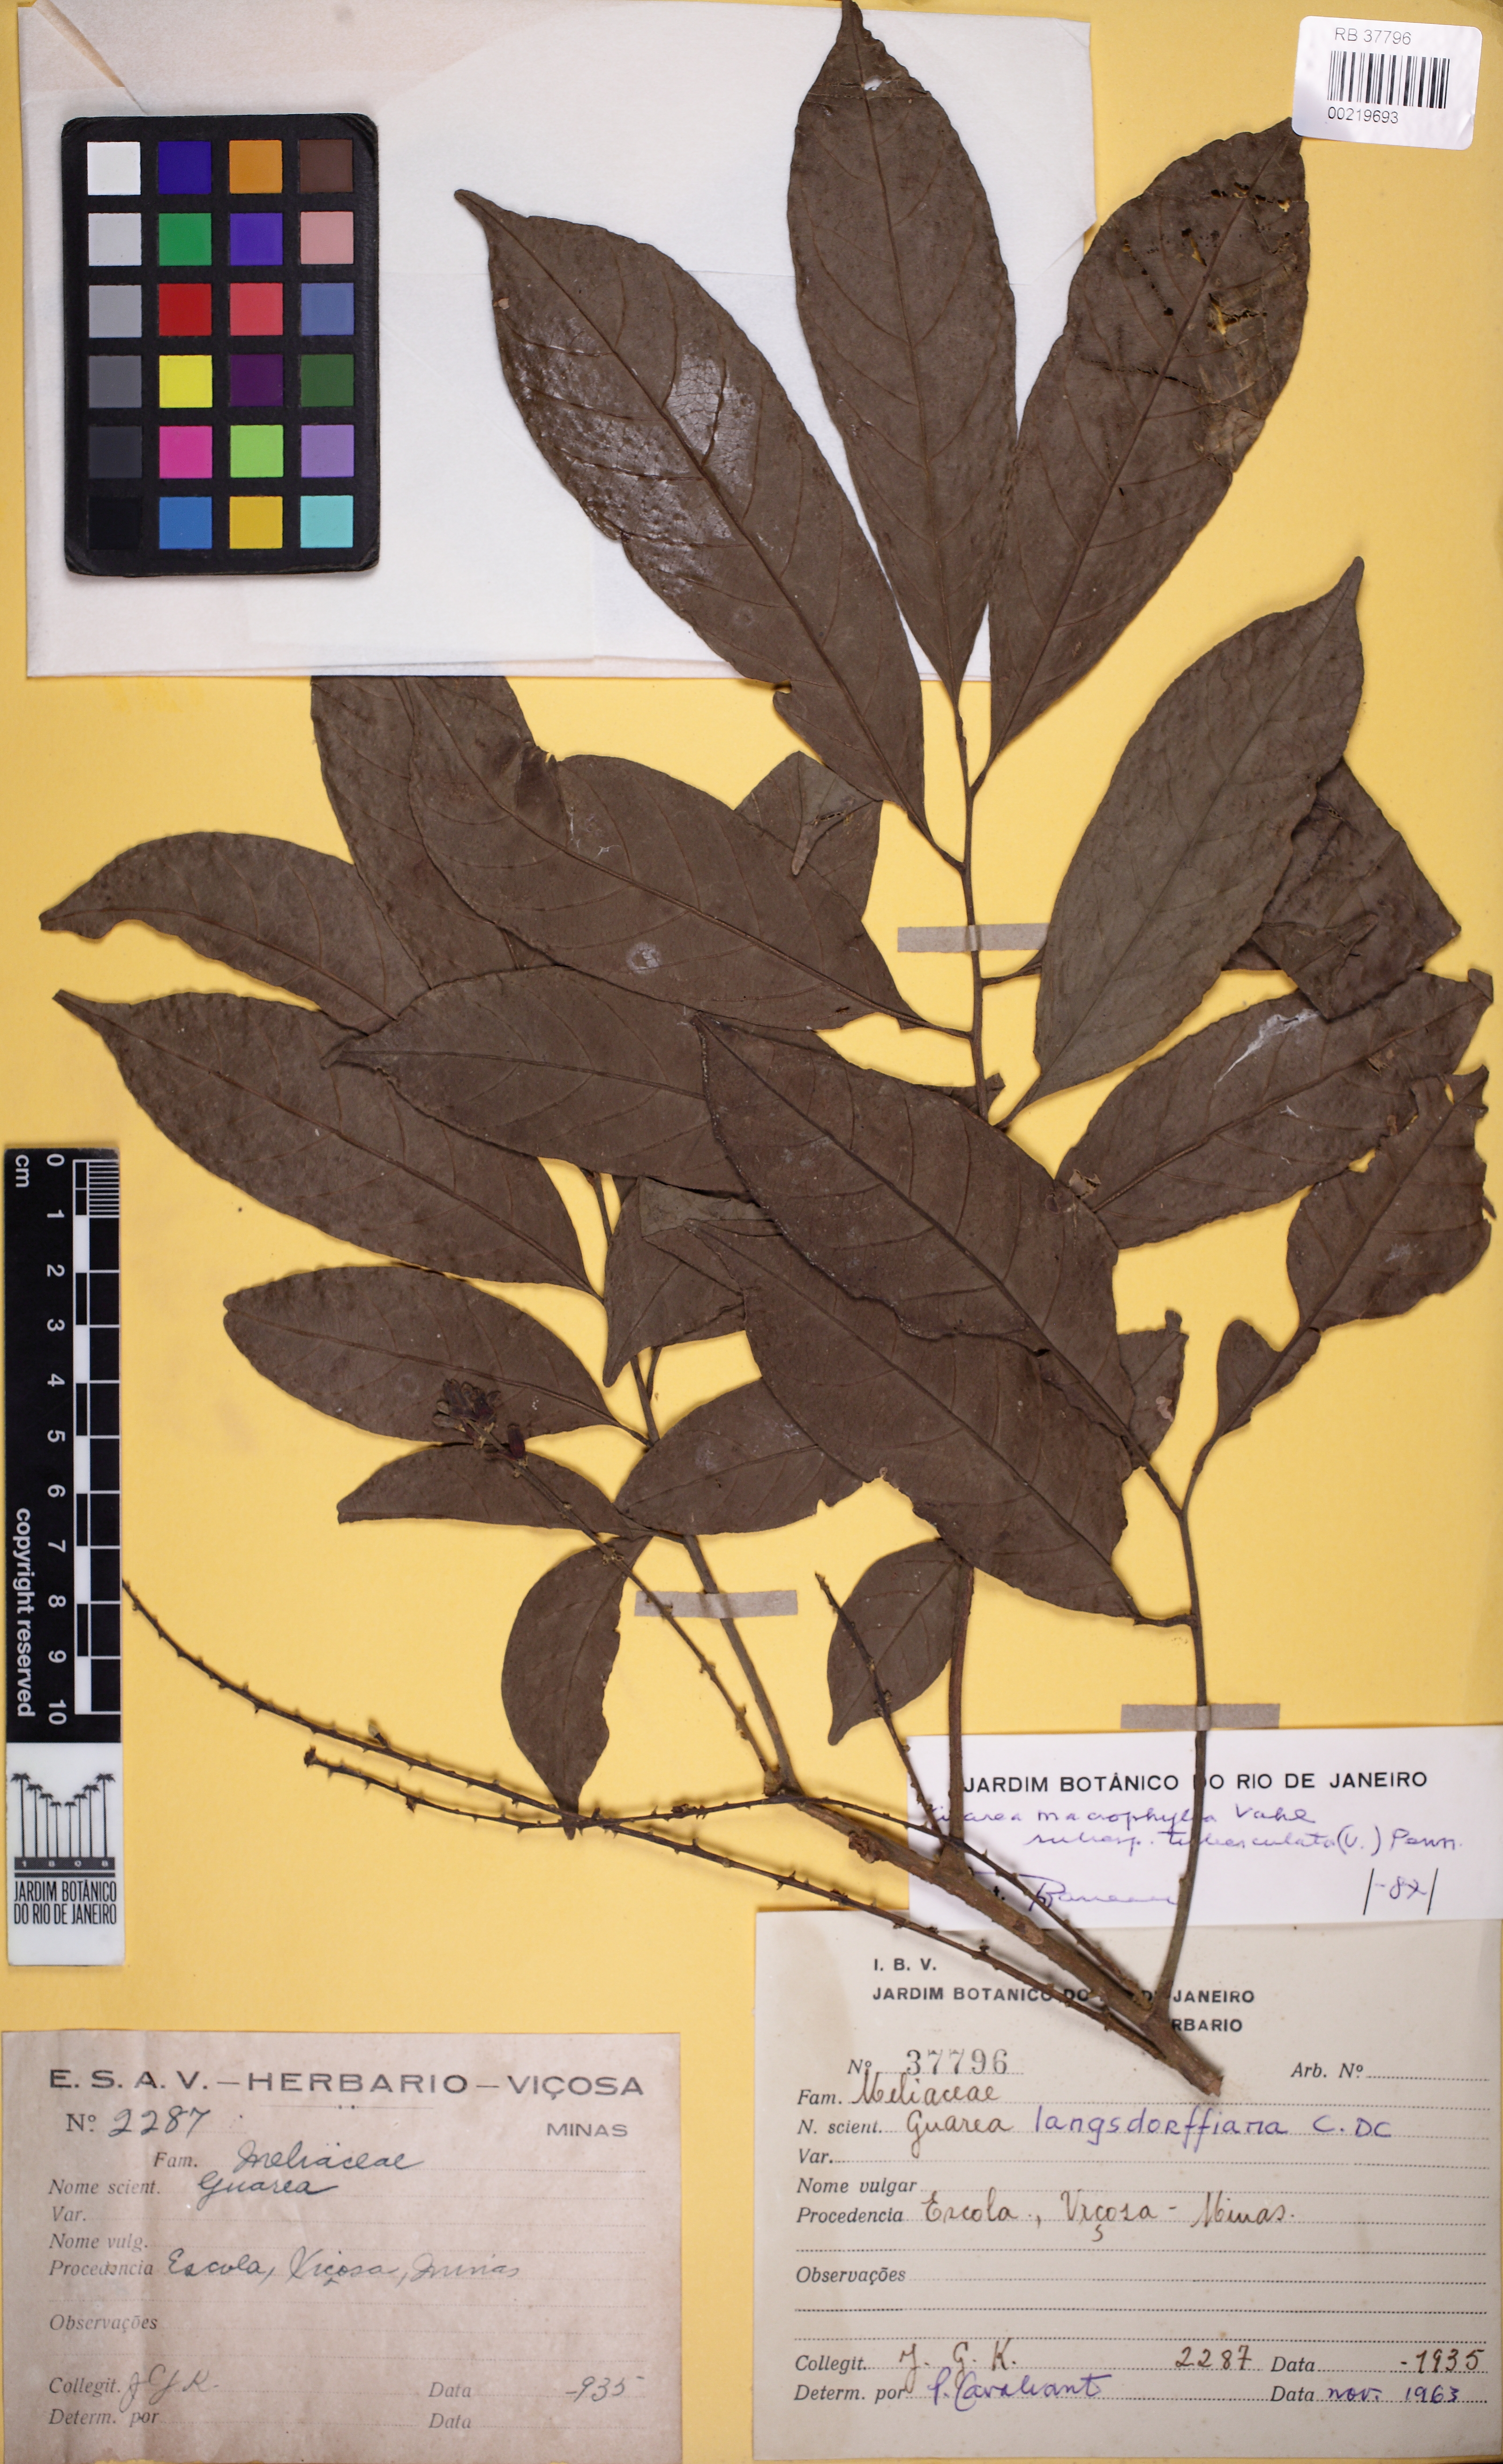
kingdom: Plantae
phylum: Tracheophyta
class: Magnoliopsida
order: Sapindales
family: Meliaceae
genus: Guarea
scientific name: Guarea macrophylla
